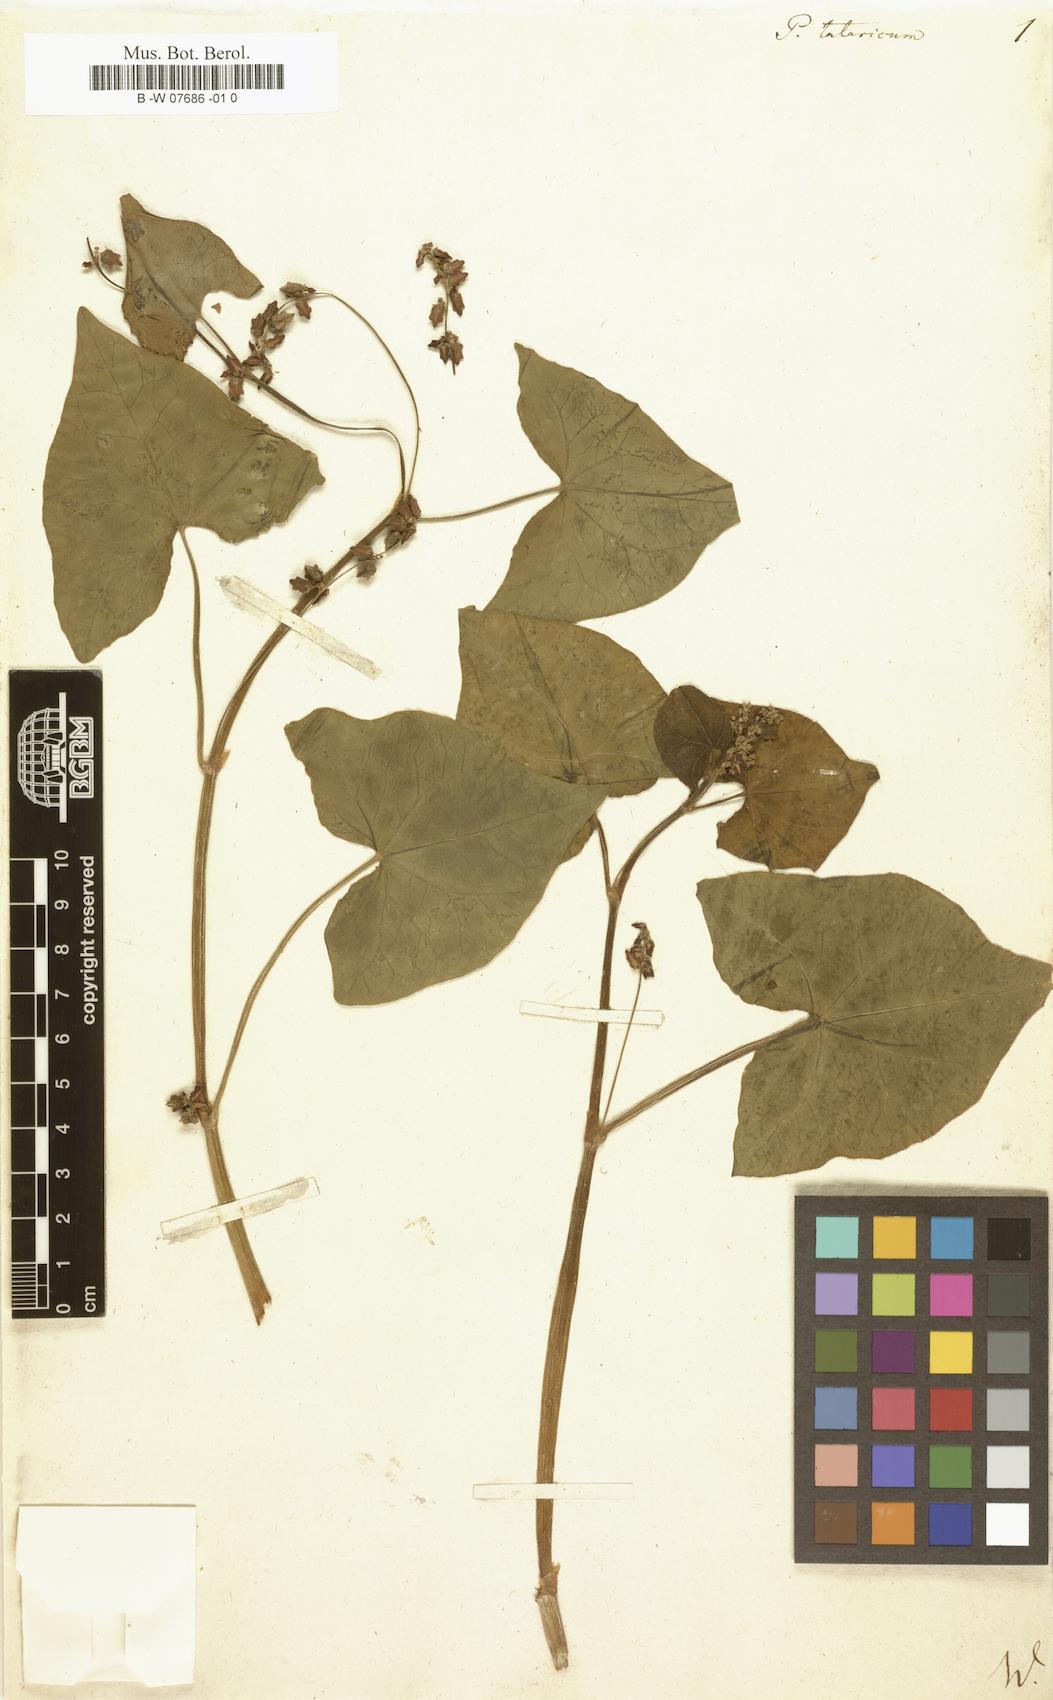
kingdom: Plantae
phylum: Tracheophyta
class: Magnoliopsida
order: Caryophyllales
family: Polygonaceae
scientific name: Polygonaceae
